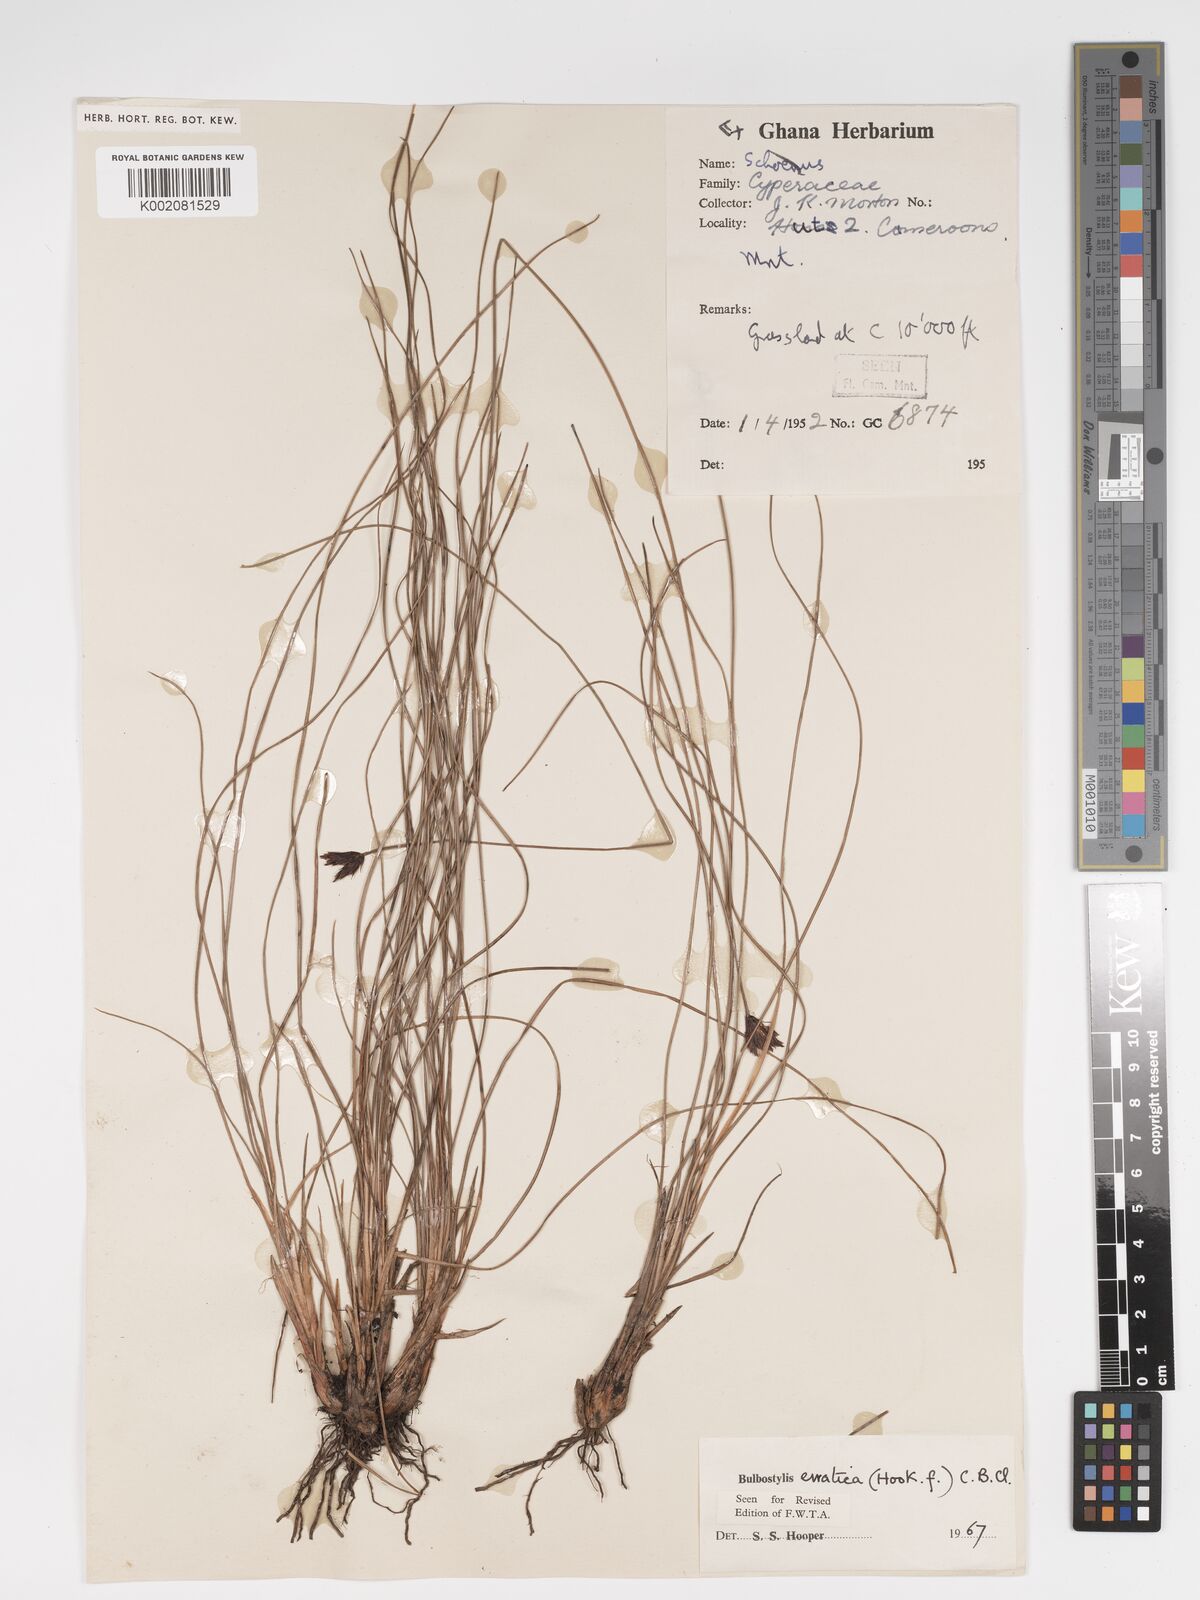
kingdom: Plantae
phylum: Tracheophyta
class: Liliopsida
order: Poales
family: Cyperaceae
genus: Bulbostylis
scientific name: Bulbostylis schoenoides
